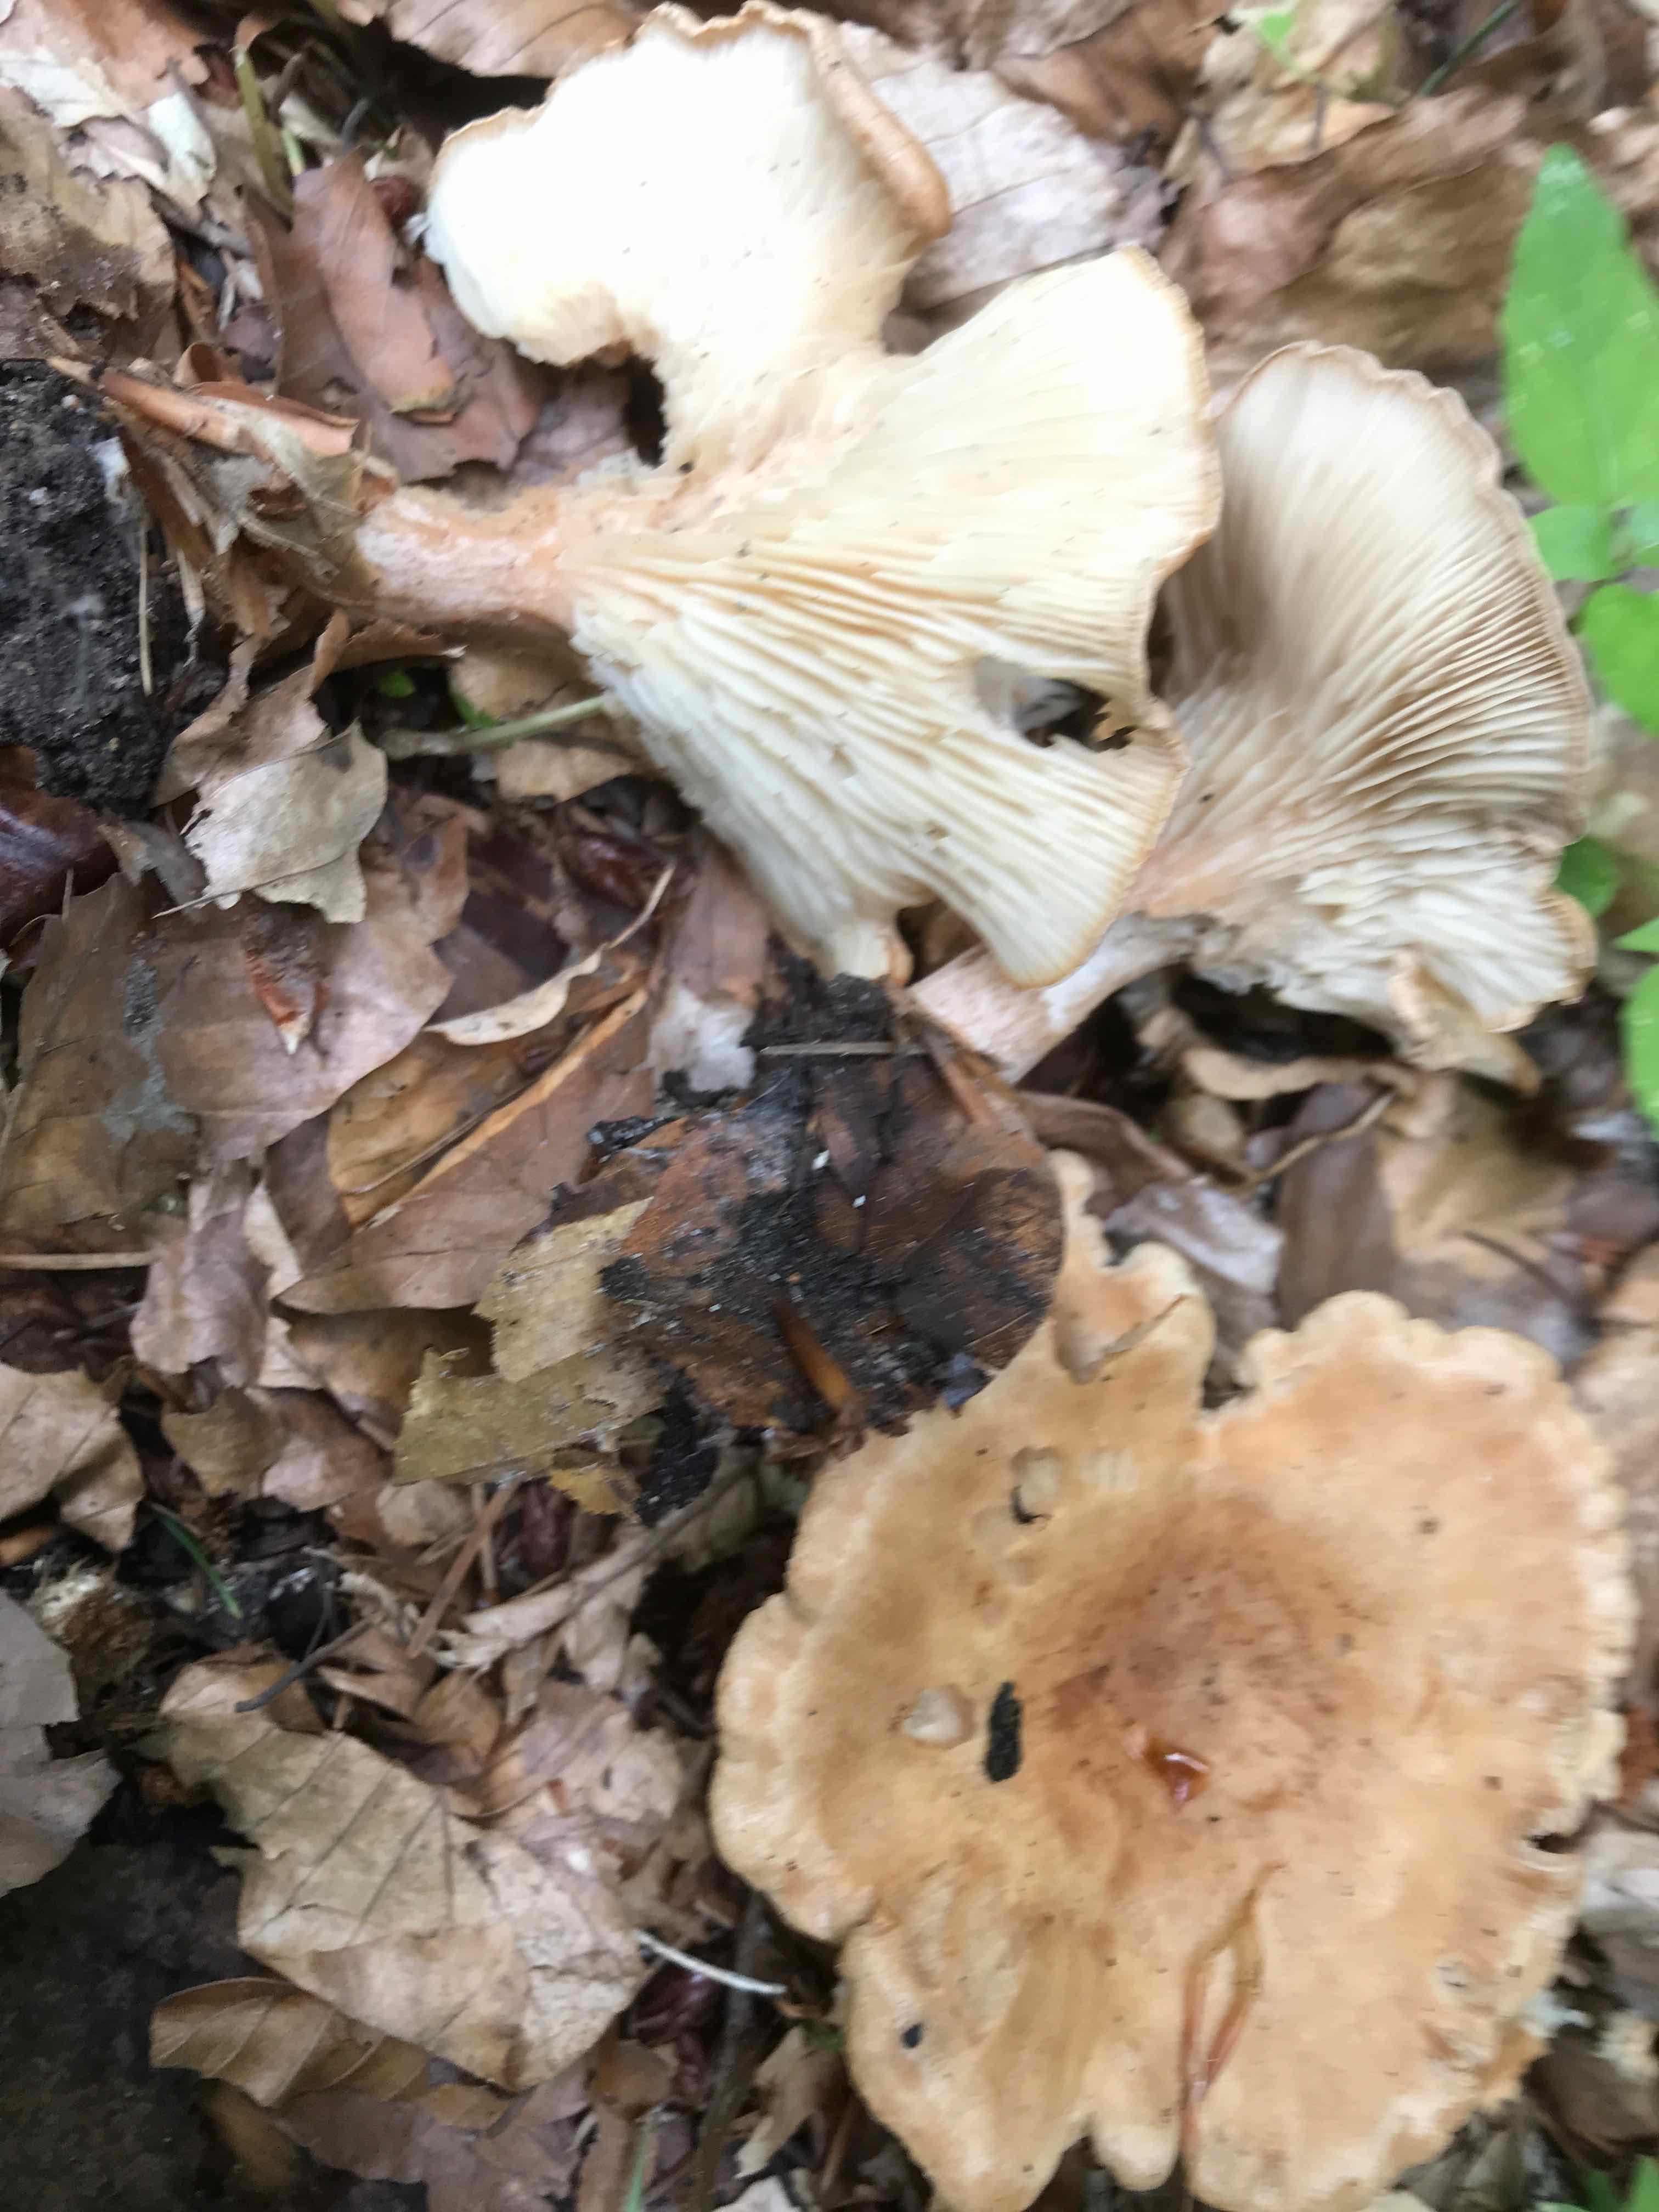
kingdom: Fungi
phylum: Basidiomycota
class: Agaricomycetes
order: Agaricales
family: Tricholomataceae
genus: Infundibulicybe
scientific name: Infundibulicybe gibba
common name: almindelig tragthat
